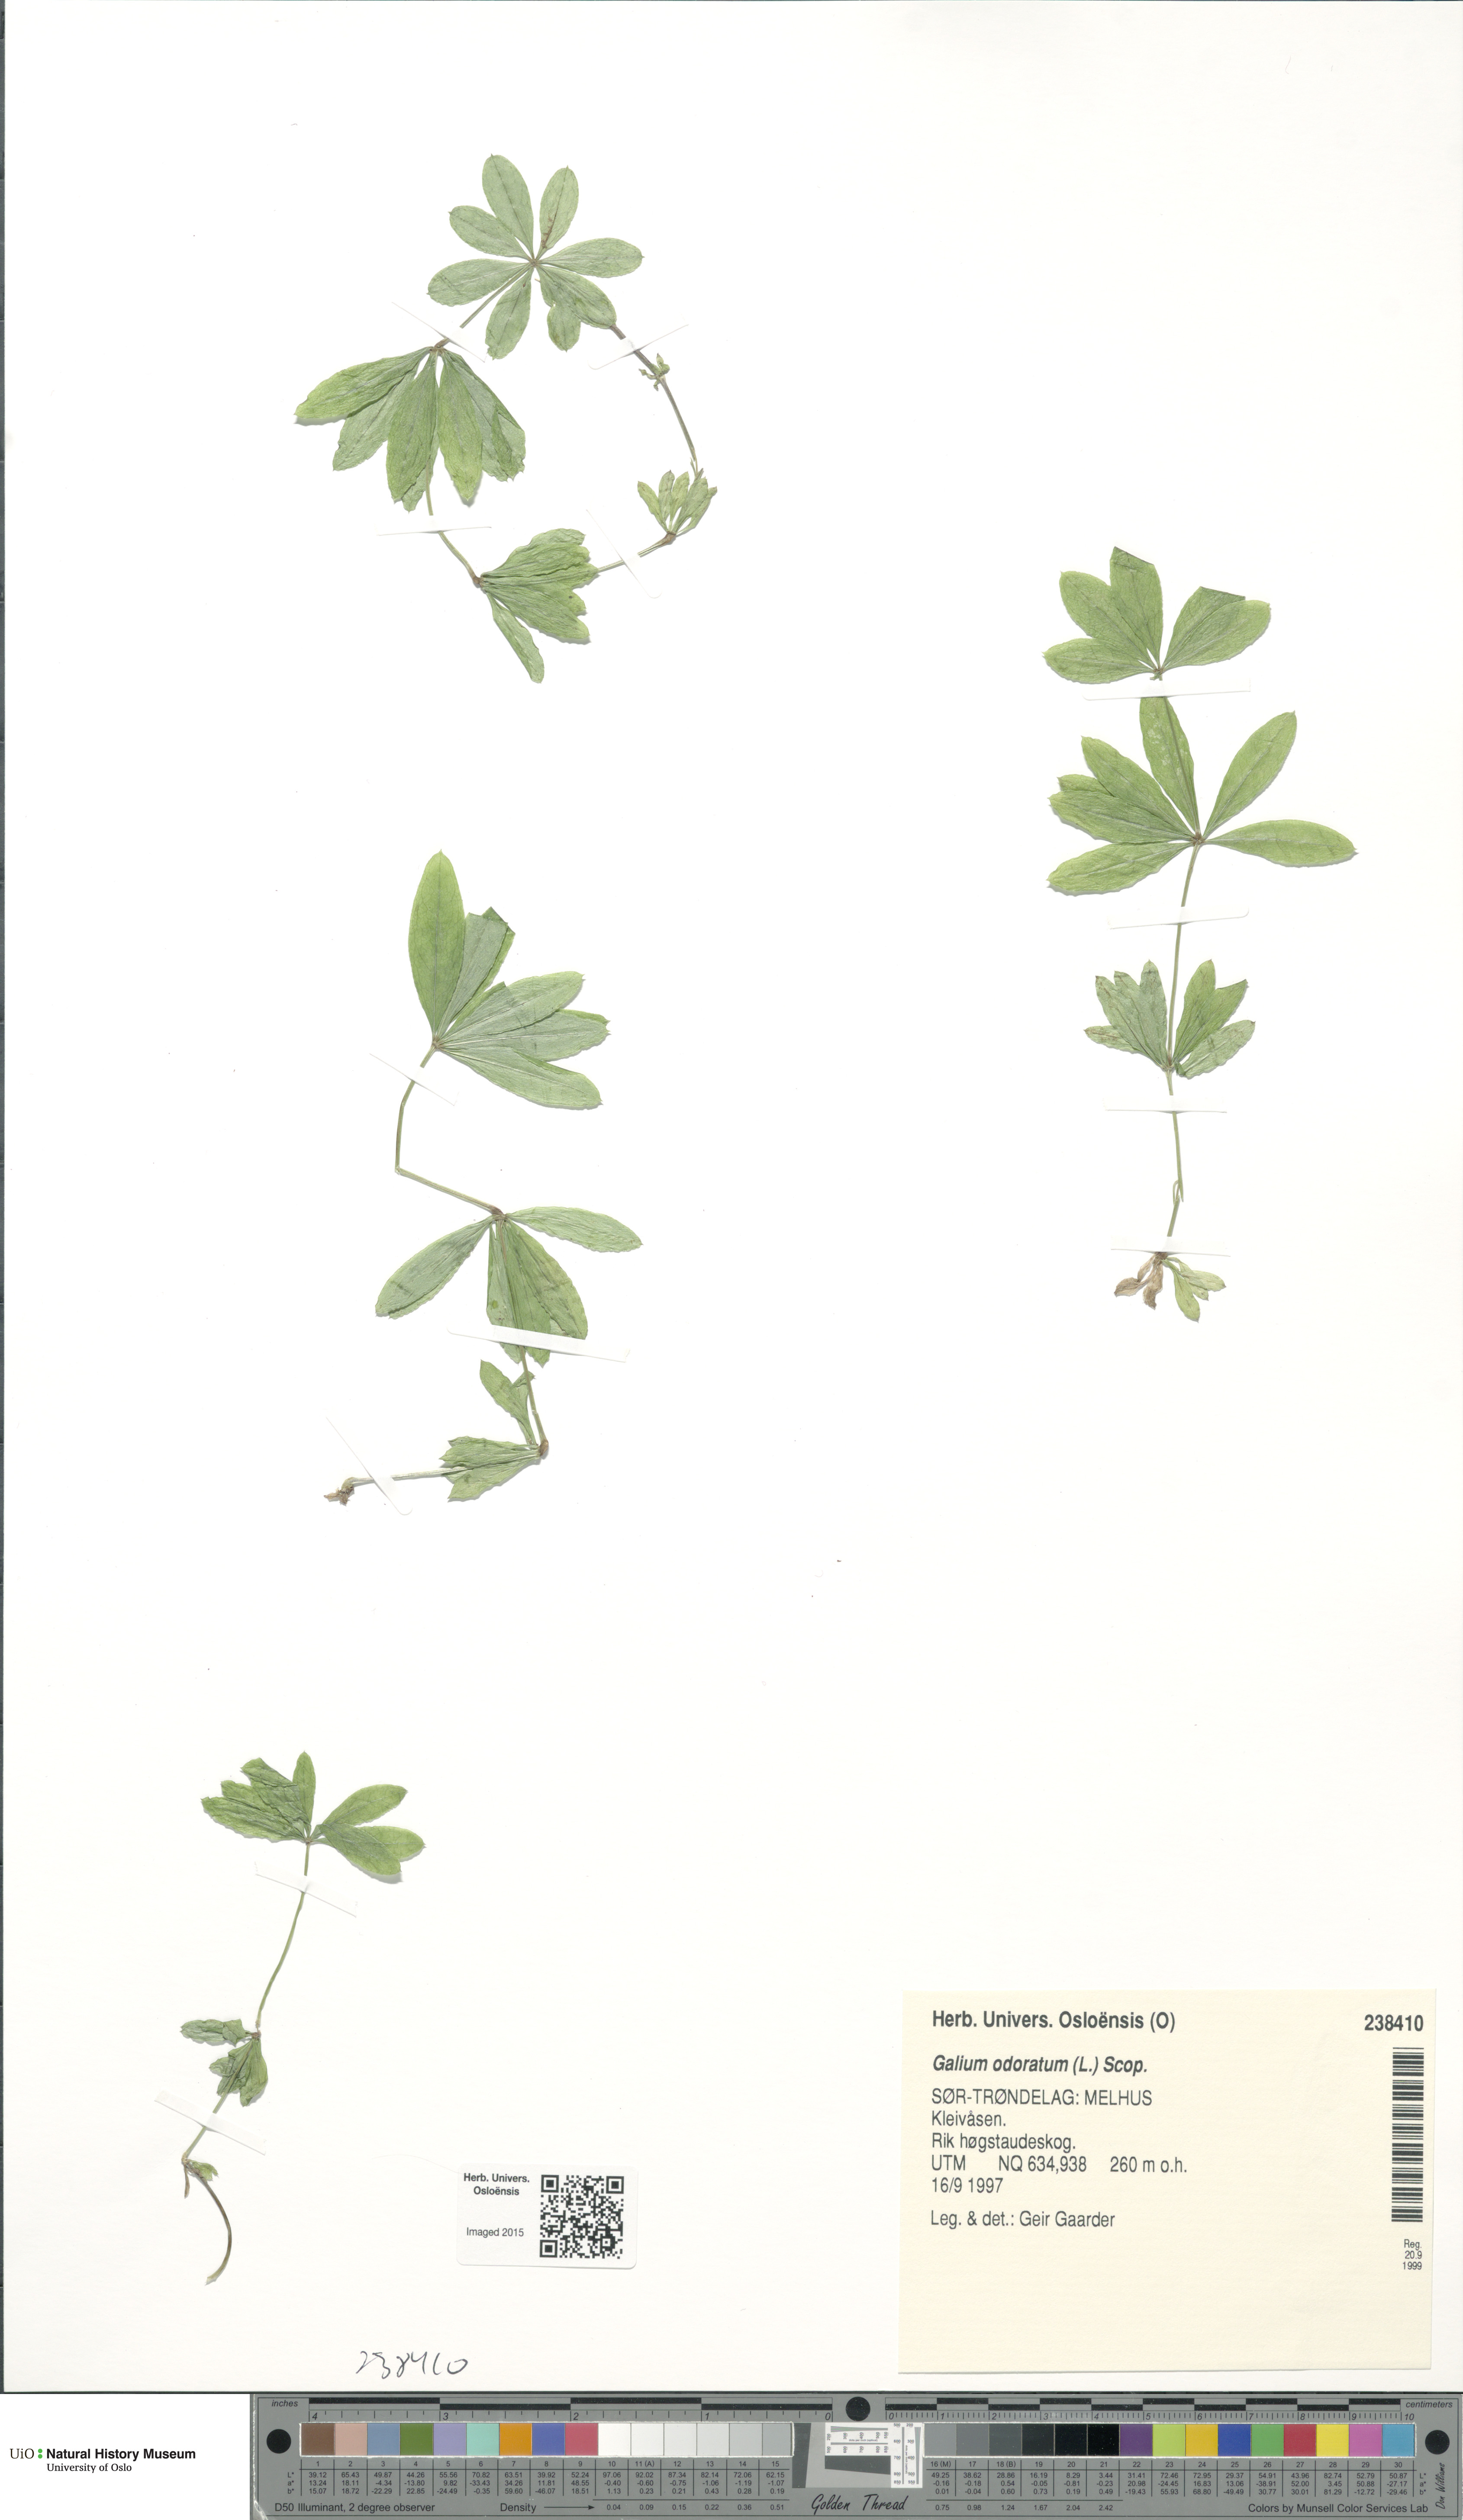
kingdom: Plantae
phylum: Tracheophyta
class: Magnoliopsida
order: Gentianales
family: Rubiaceae
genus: Galium
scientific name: Galium odoratum
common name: Sweet woodruff
